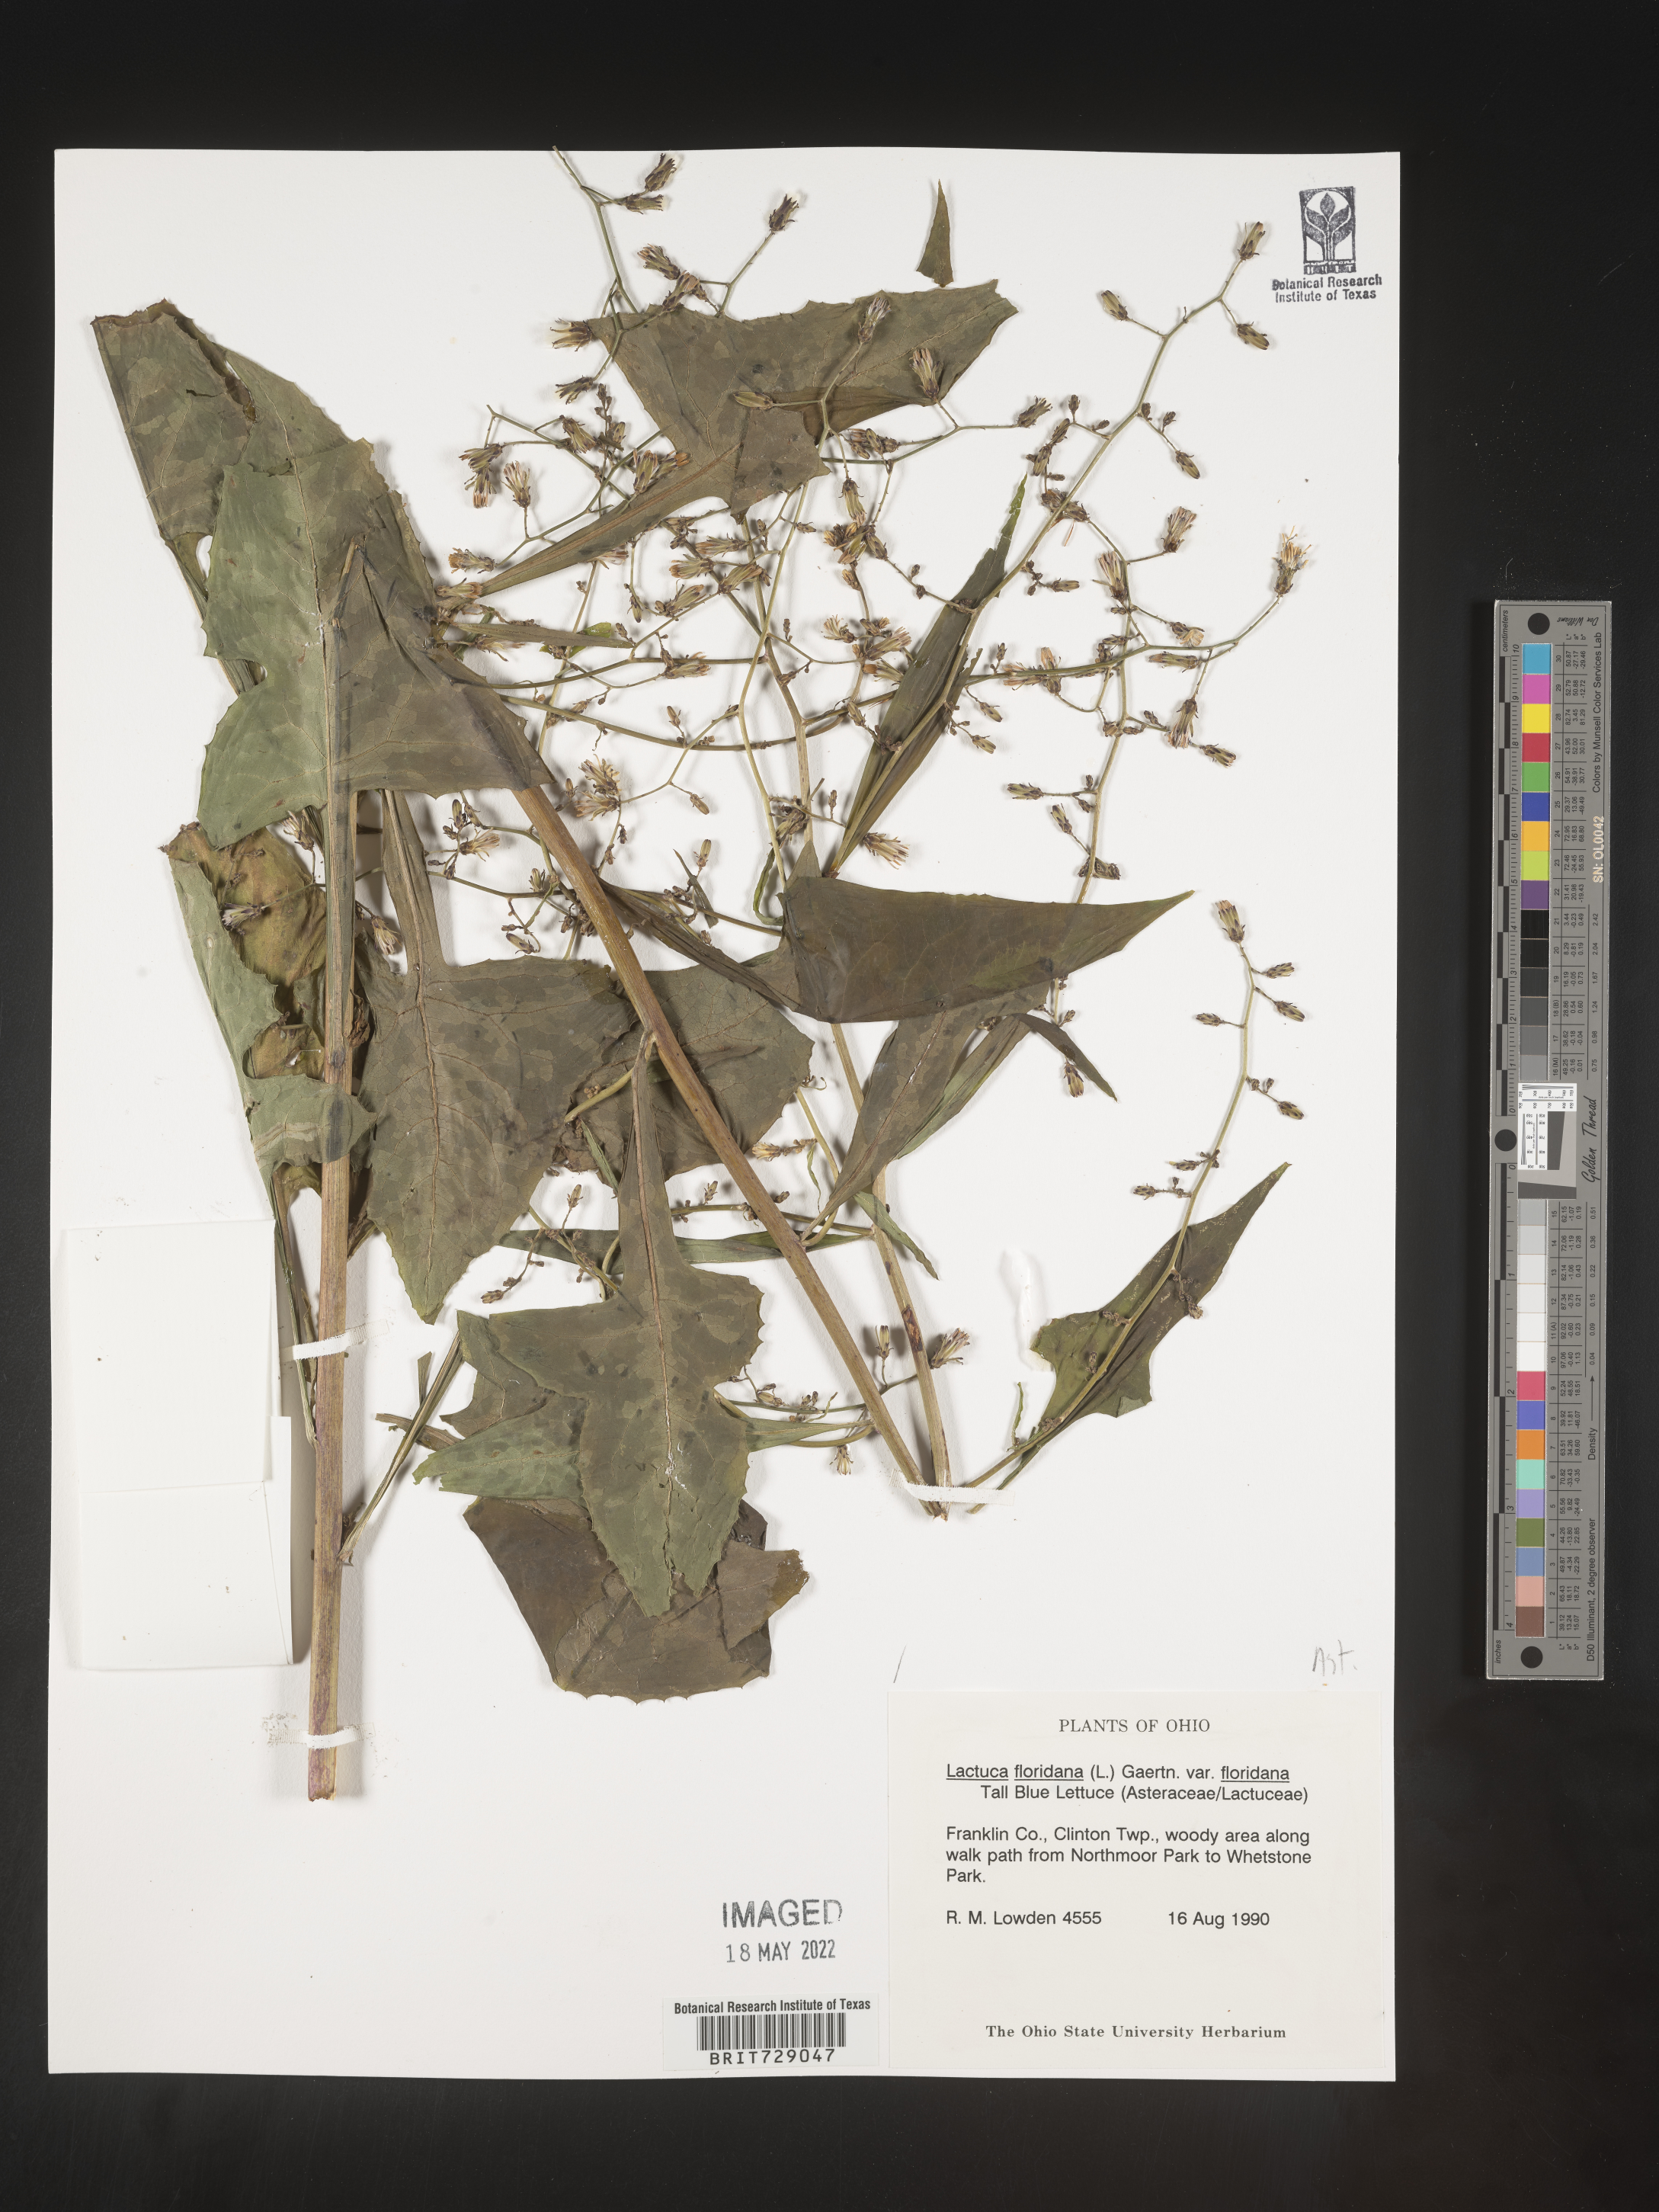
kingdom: Plantae
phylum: Tracheophyta
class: Magnoliopsida
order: Asterales
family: Asteraceae
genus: Lactuca
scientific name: Lactuca floridana
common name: Woodland lettuce
